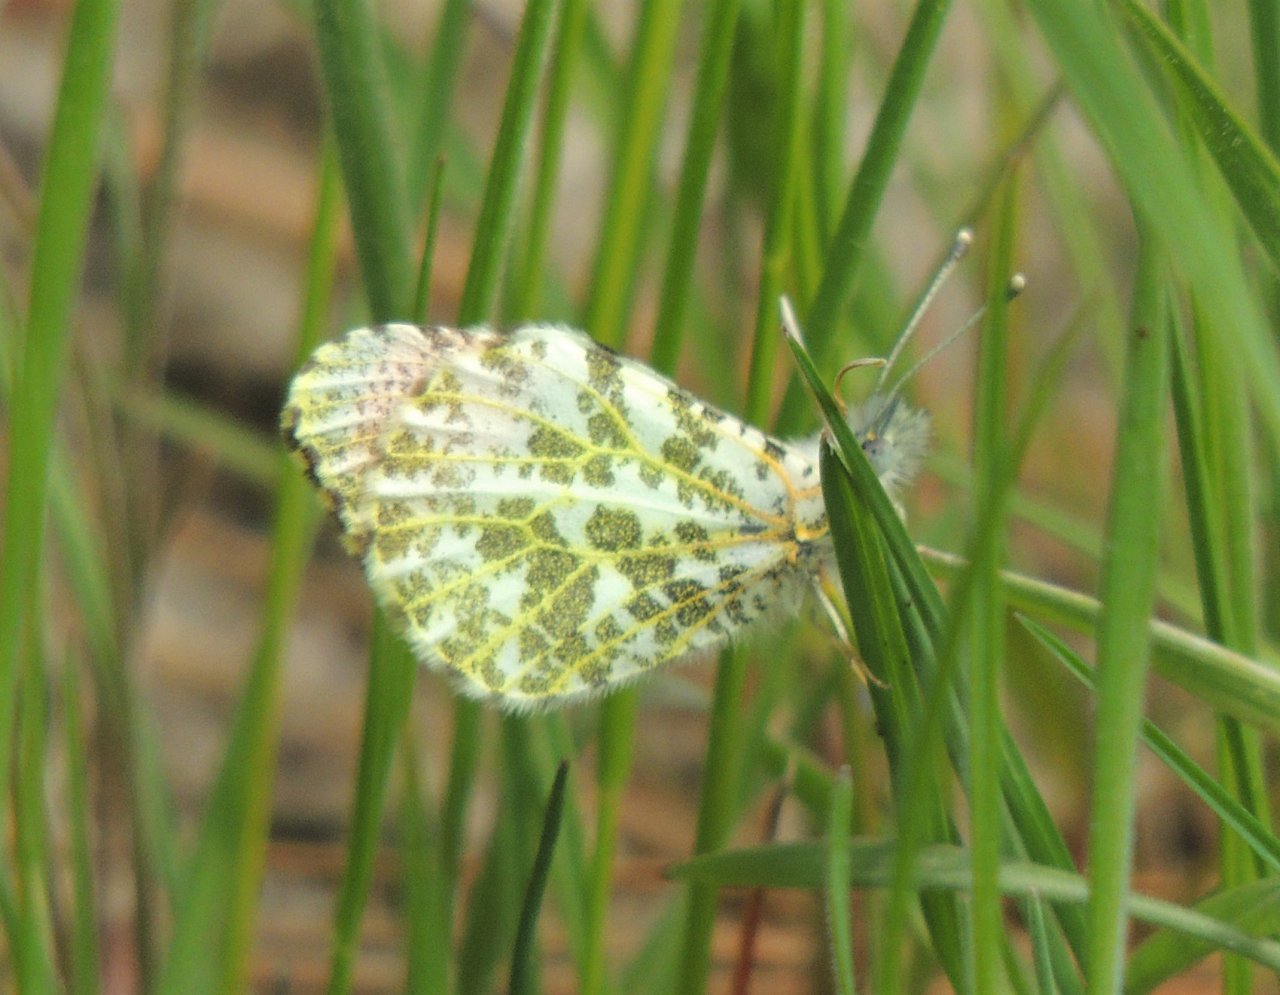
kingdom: Animalia
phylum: Arthropoda
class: Insecta
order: Lepidoptera
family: Pieridae
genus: Anthocharis
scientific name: Anthocharis sara
